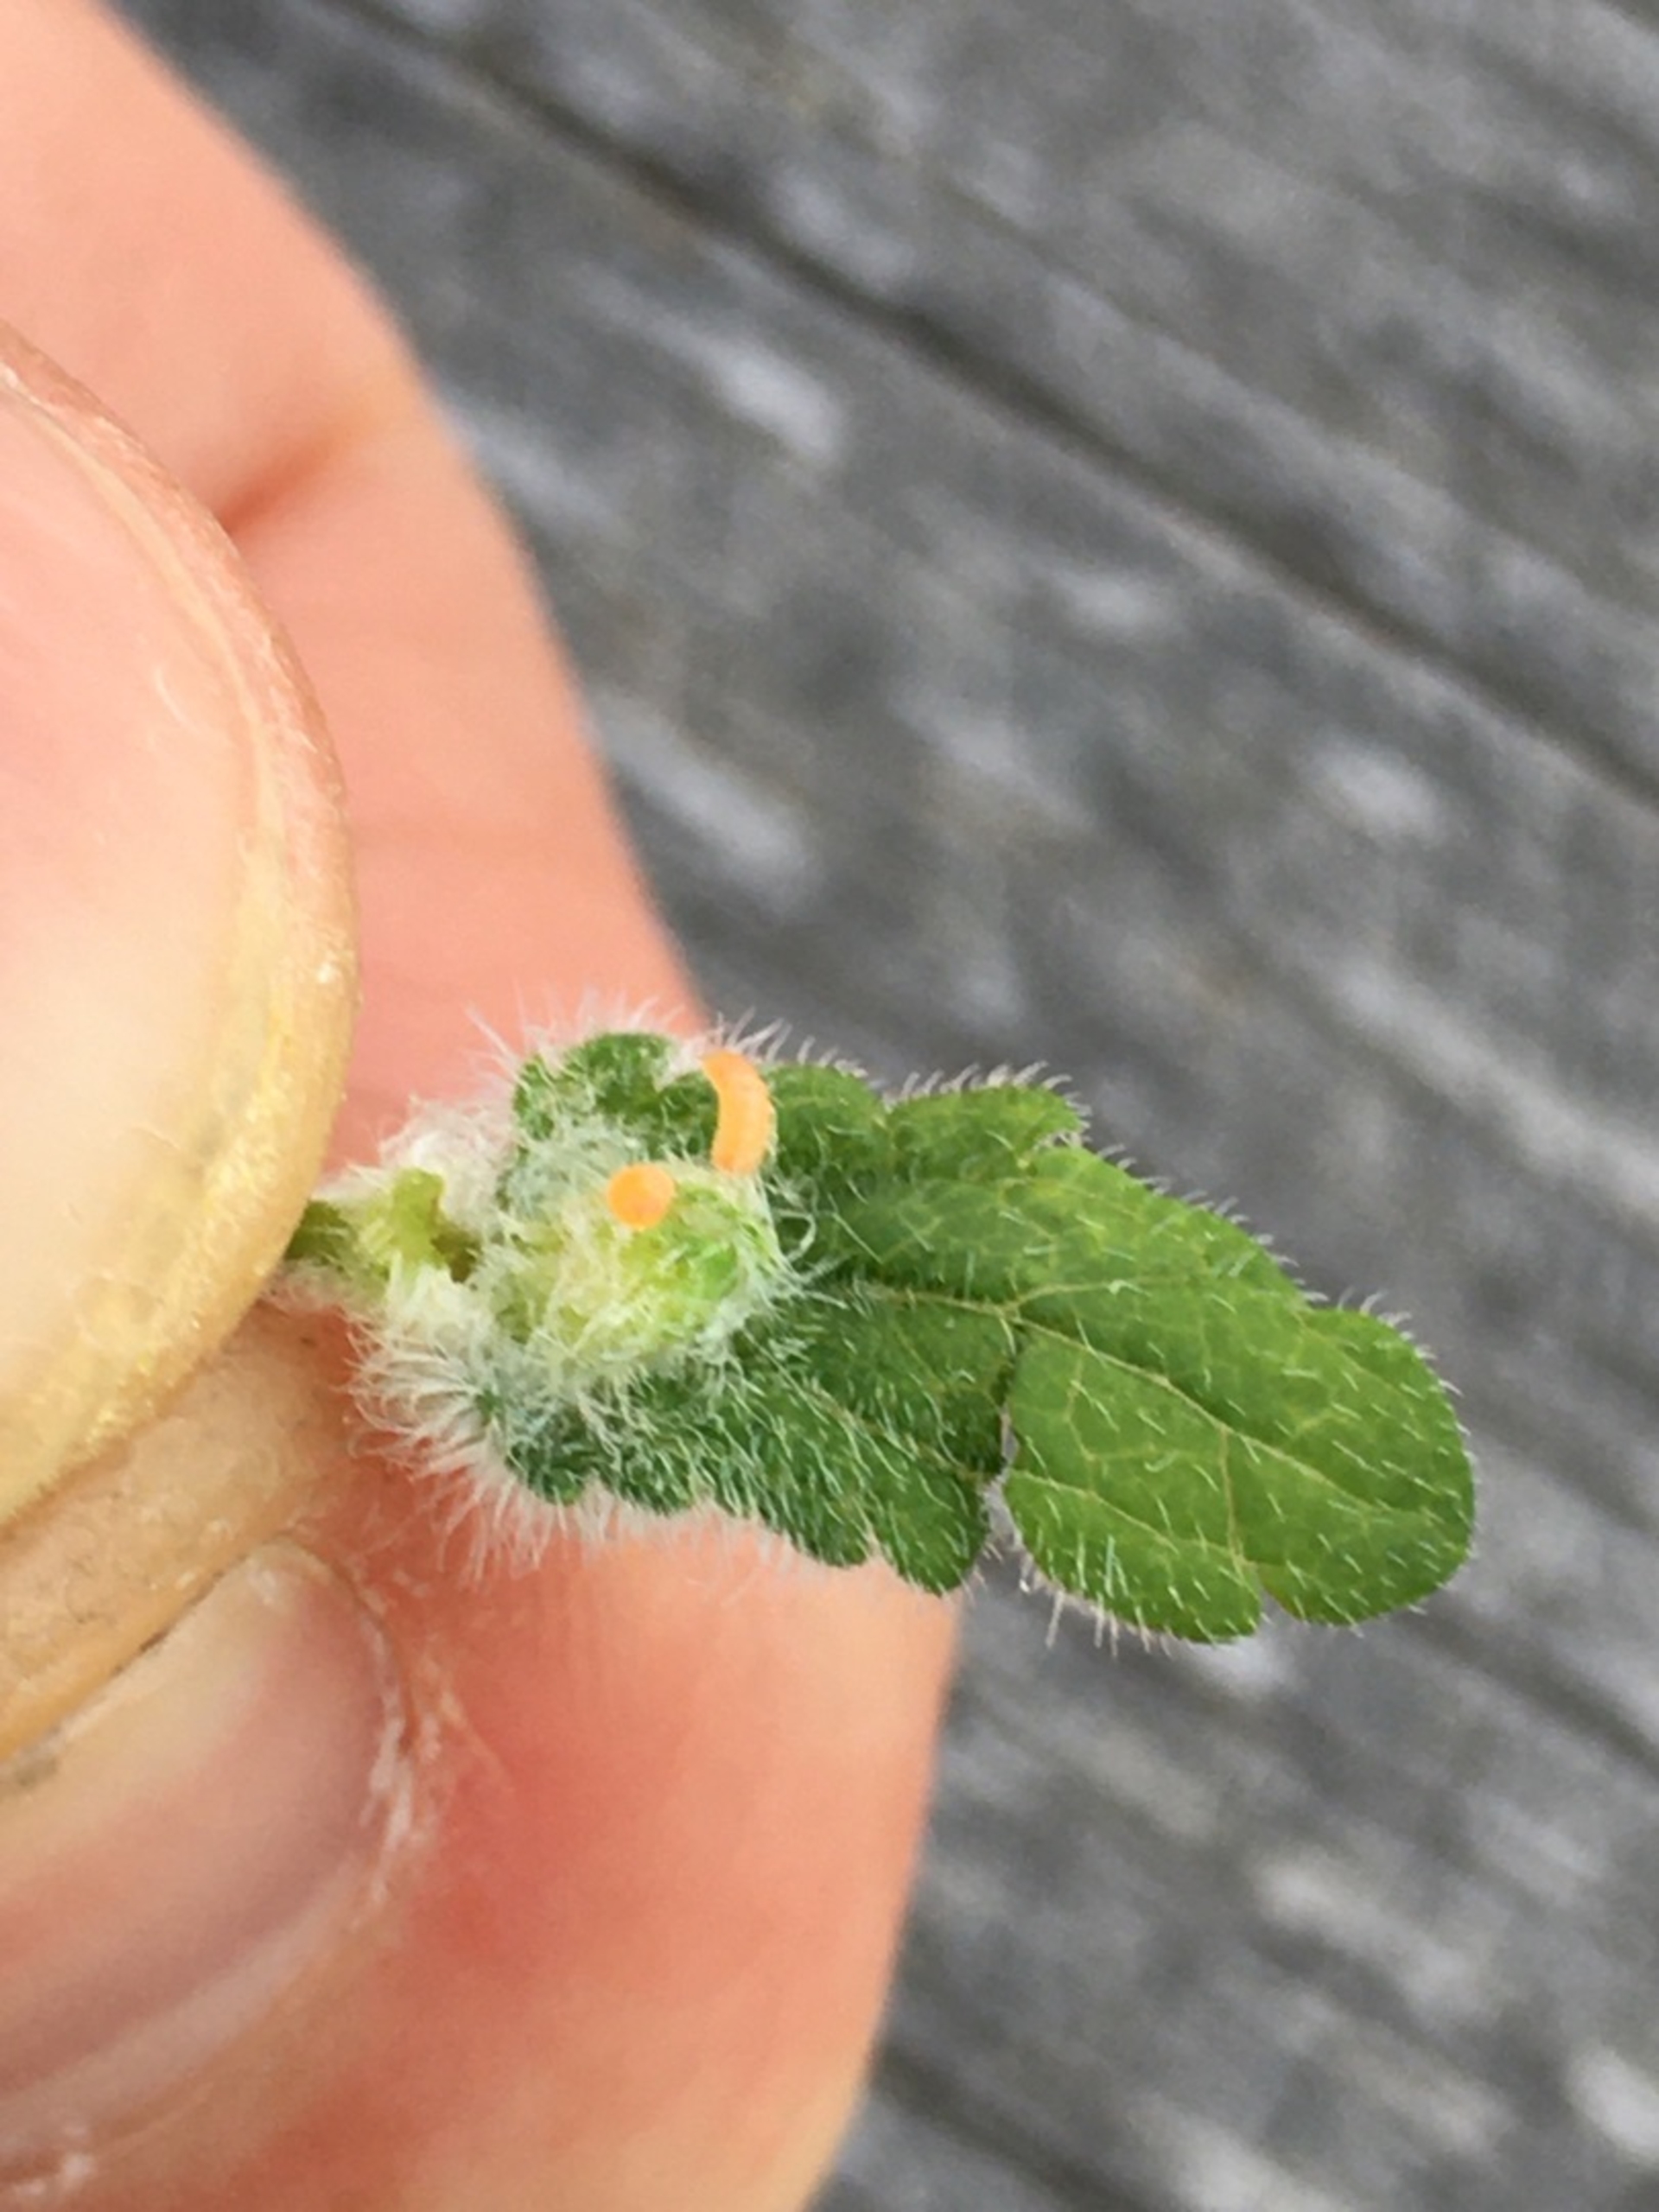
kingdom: Animalia
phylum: Arthropoda
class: Insecta
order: Diptera
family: Cecidomyiidae
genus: Jaapiella
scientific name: Jaapiella veronicae
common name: Ærenprisgalmyg
